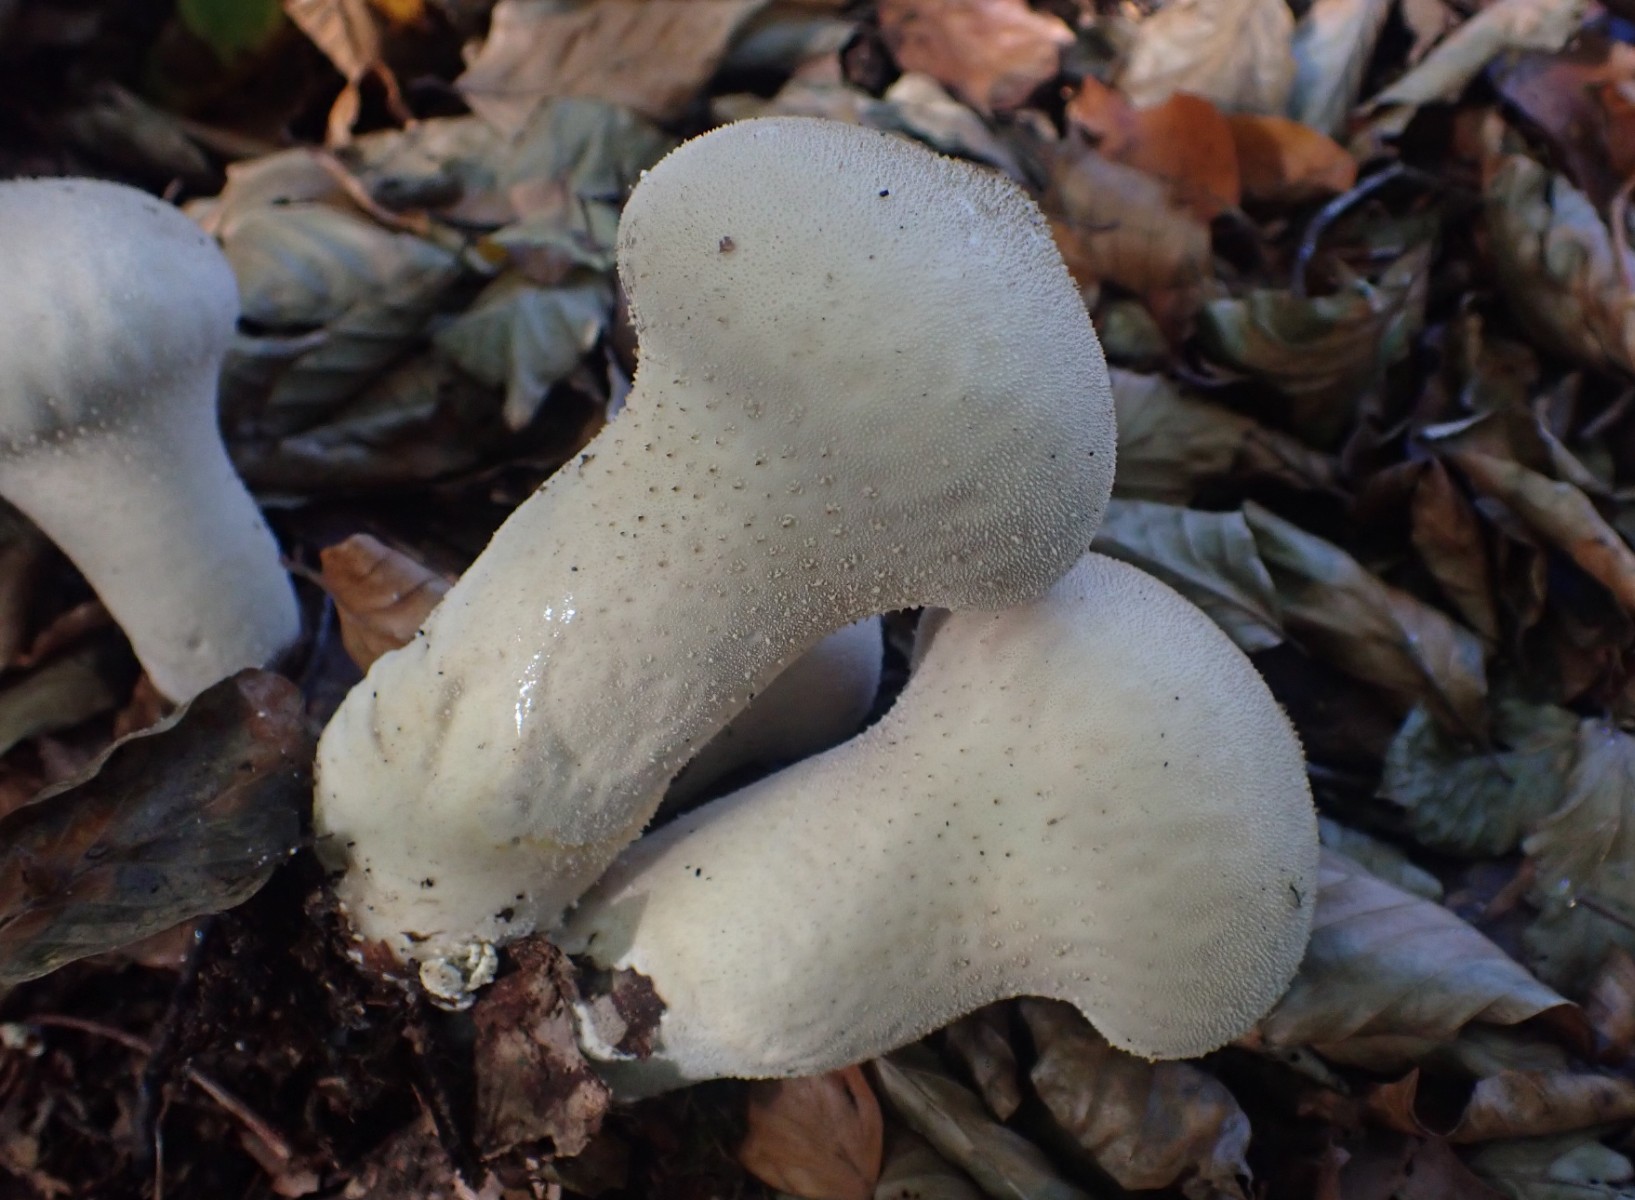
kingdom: Fungi
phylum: Basidiomycota
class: Agaricomycetes
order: Agaricales
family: Agaricaceae
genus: Lycoperdon
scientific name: Lycoperdon
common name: støvbold
